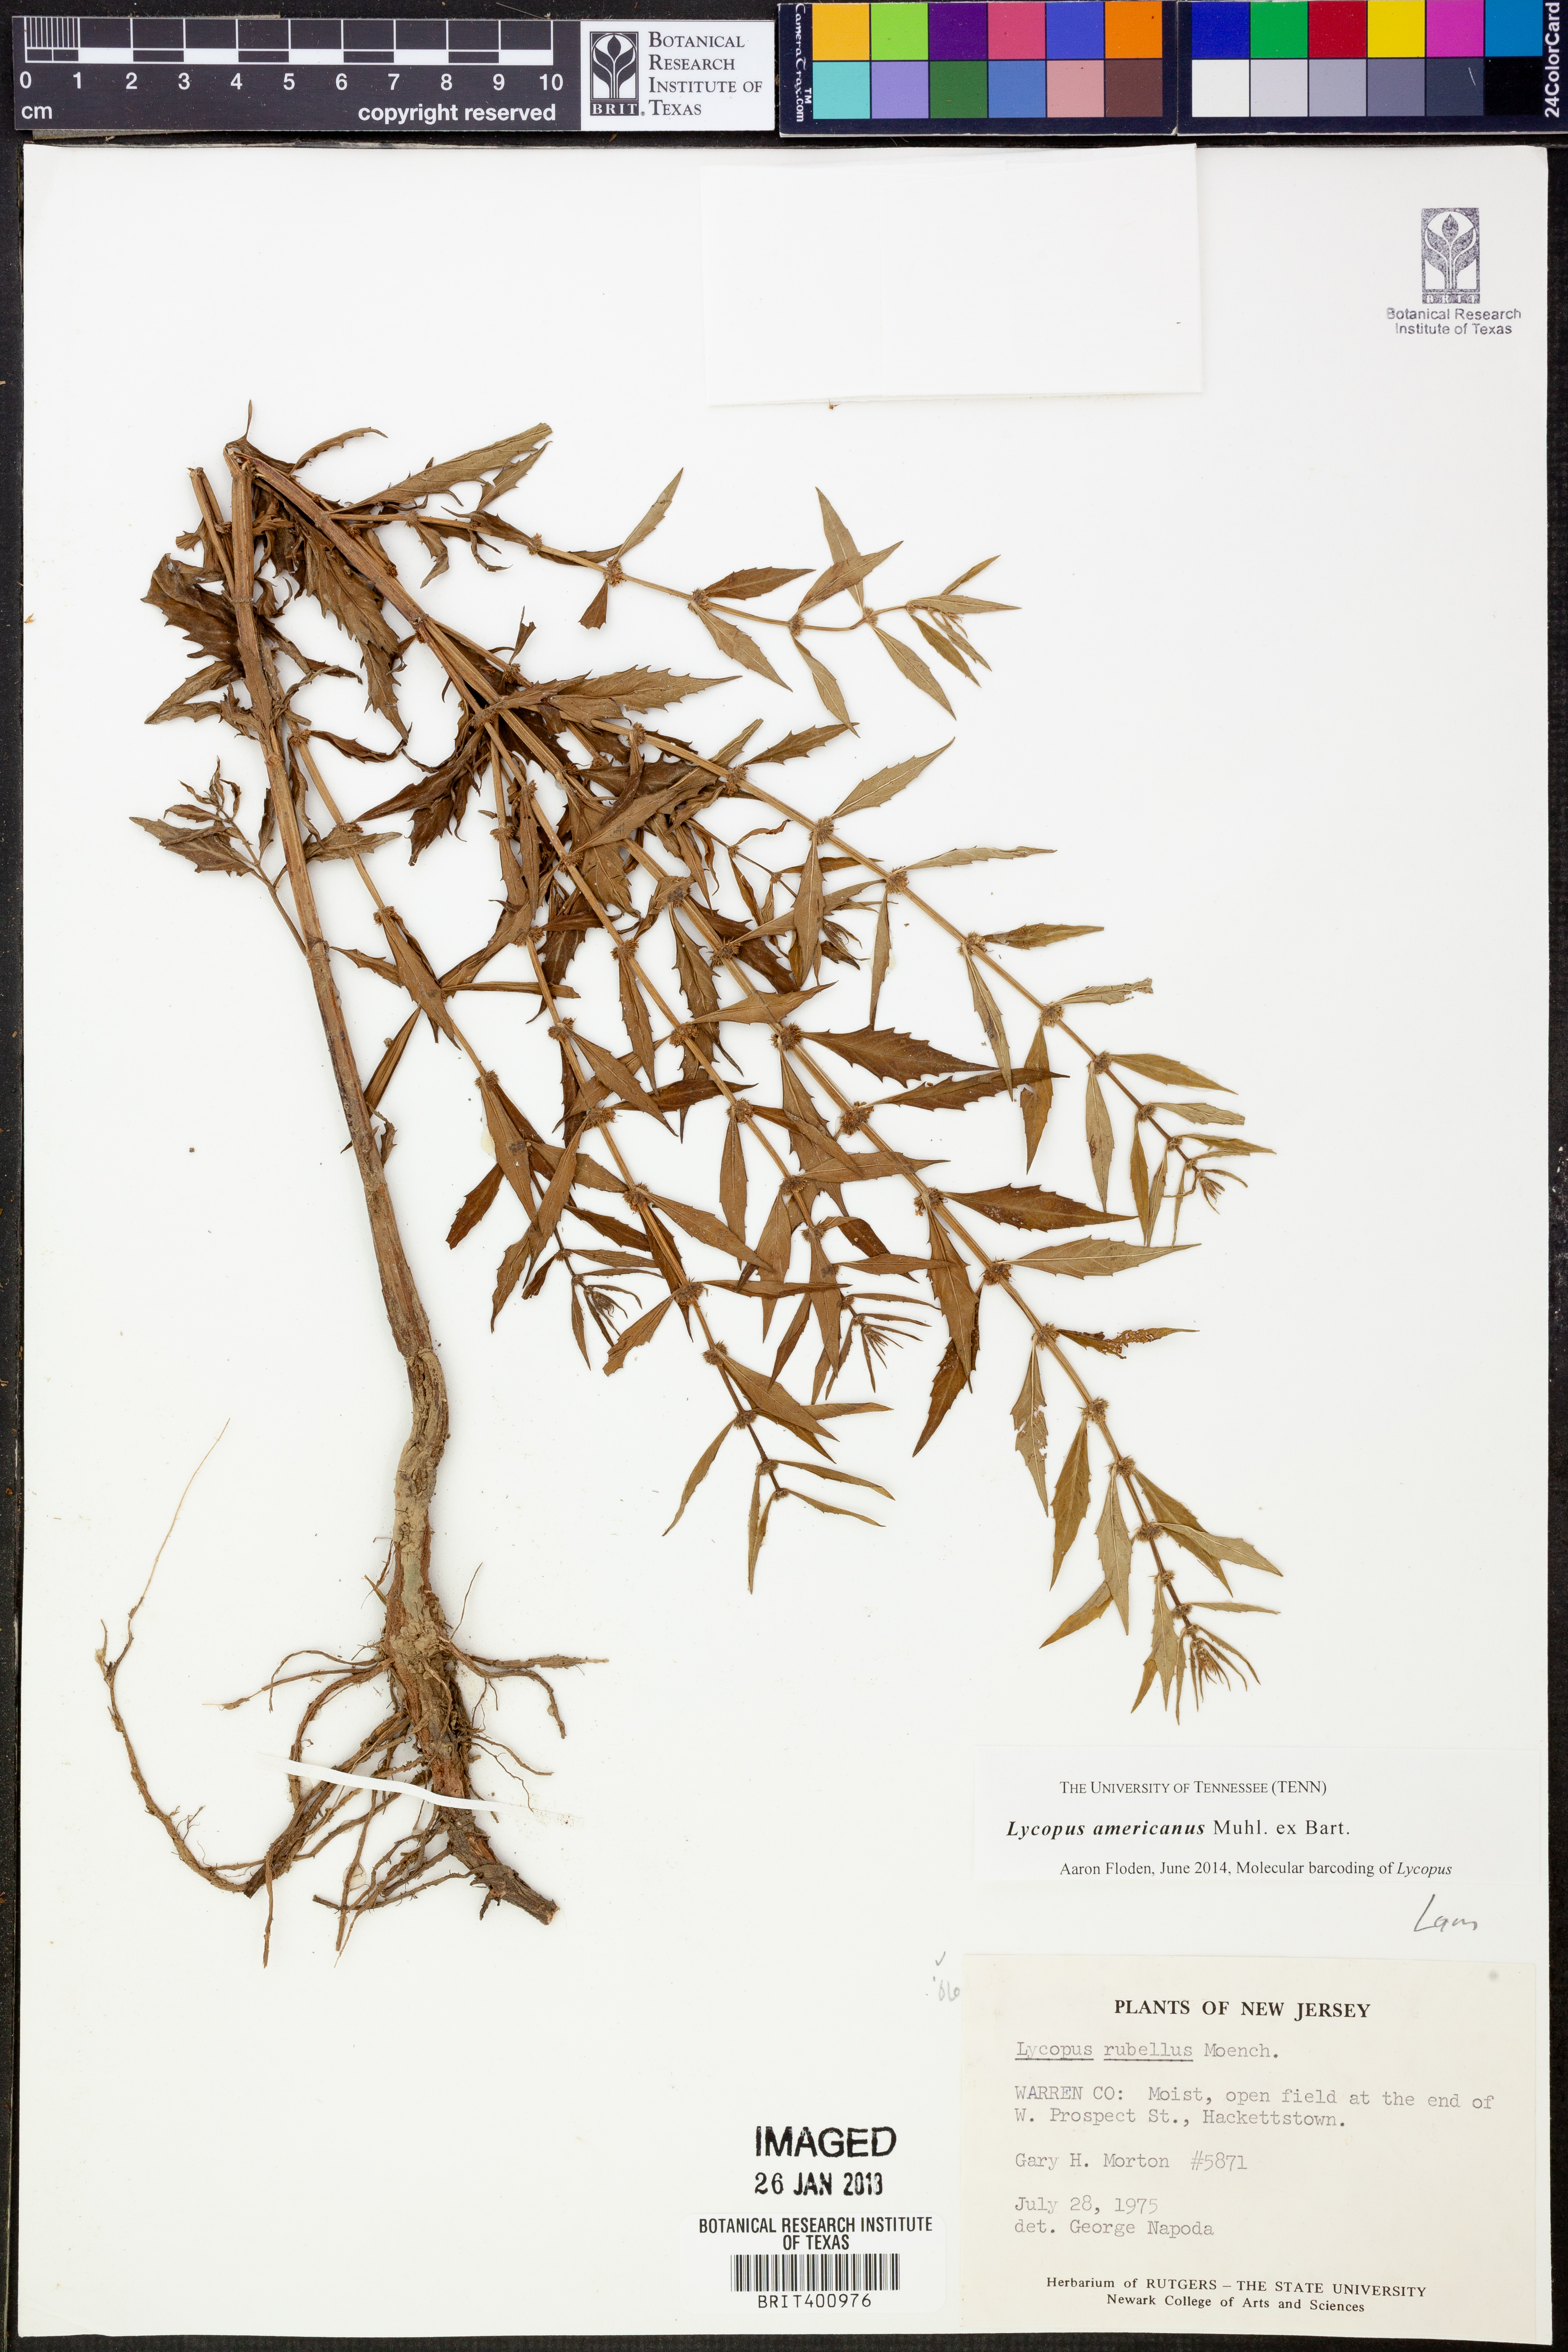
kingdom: Plantae
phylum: Tracheophyta
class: Magnoliopsida
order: Lamiales
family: Lamiaceae
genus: Lycopus
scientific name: Lycopus americanus
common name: American bugleweed
